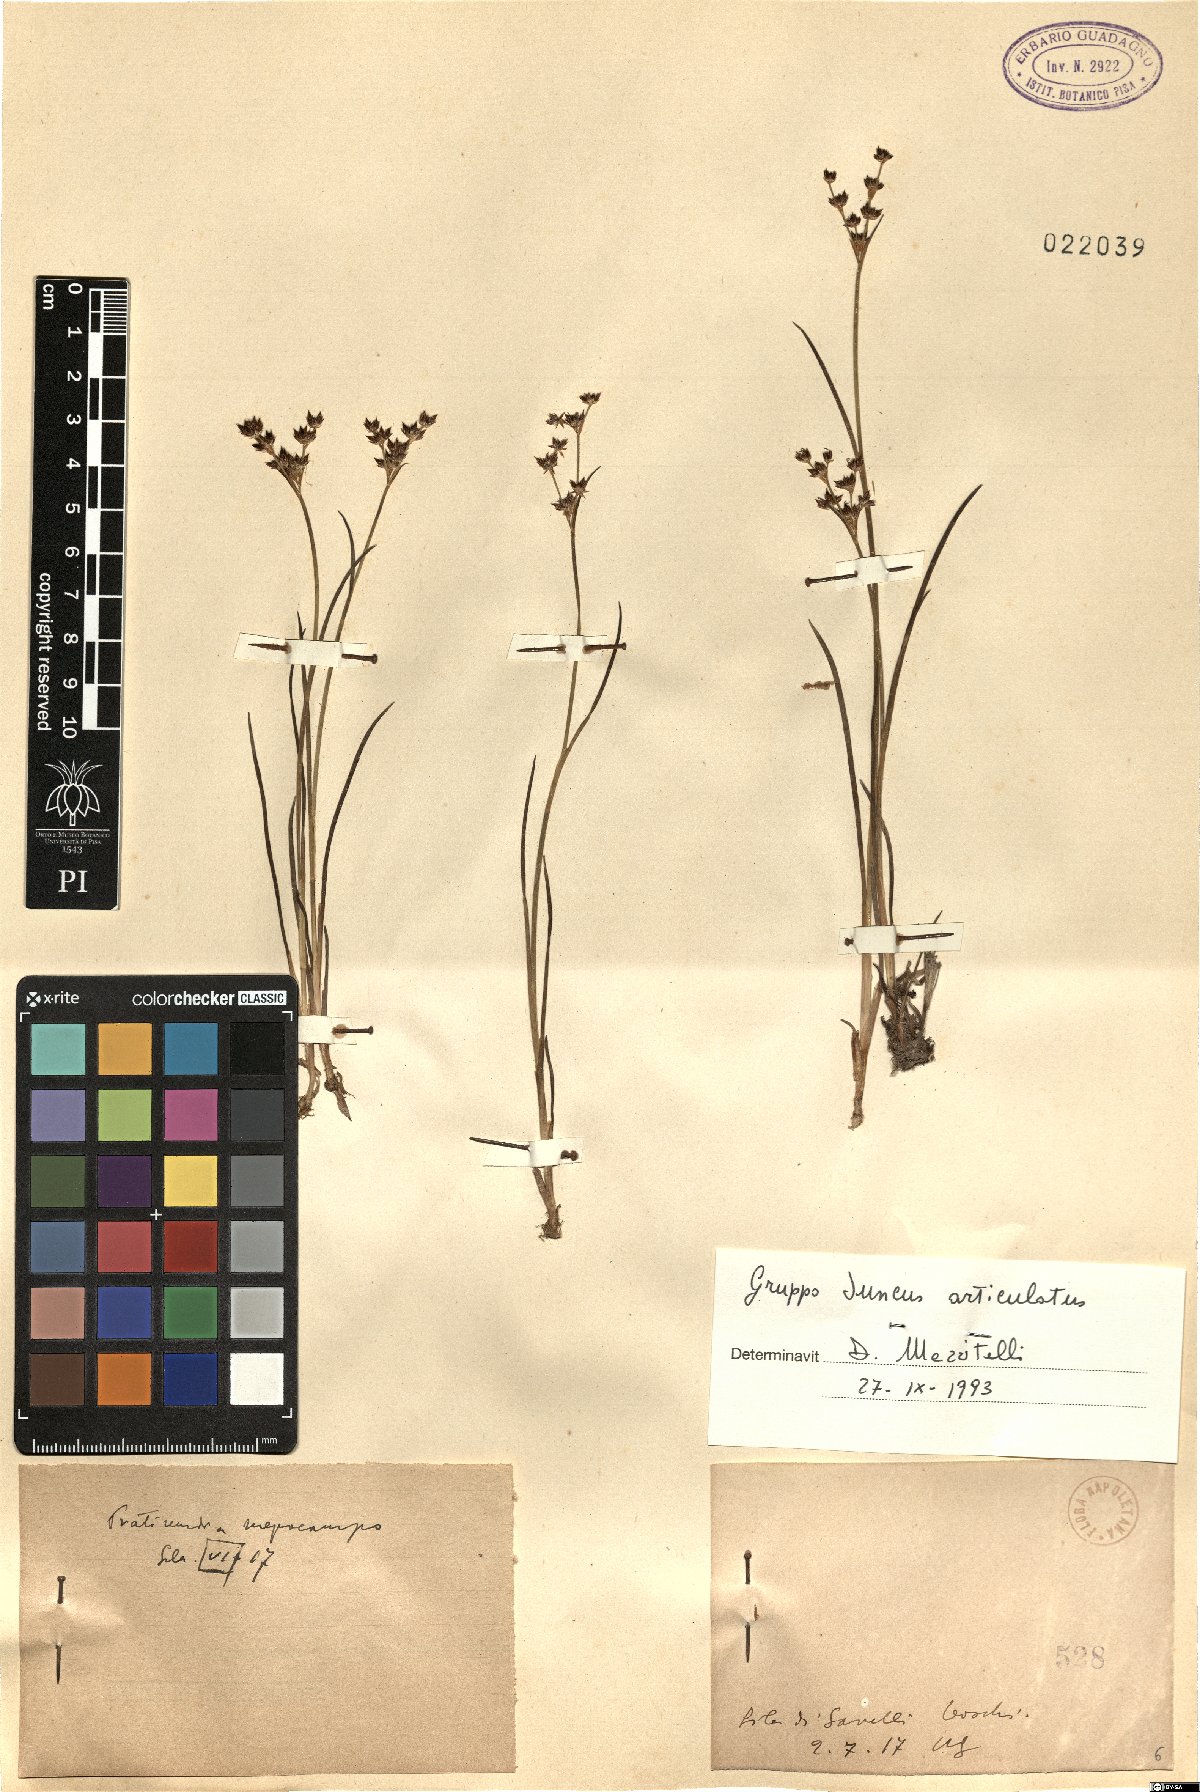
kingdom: Plantae
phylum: Tracheophyta
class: Liliopsida
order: Poales
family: Juncaceae
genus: Juncus
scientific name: Juncus articulatus
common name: Jointed rush
